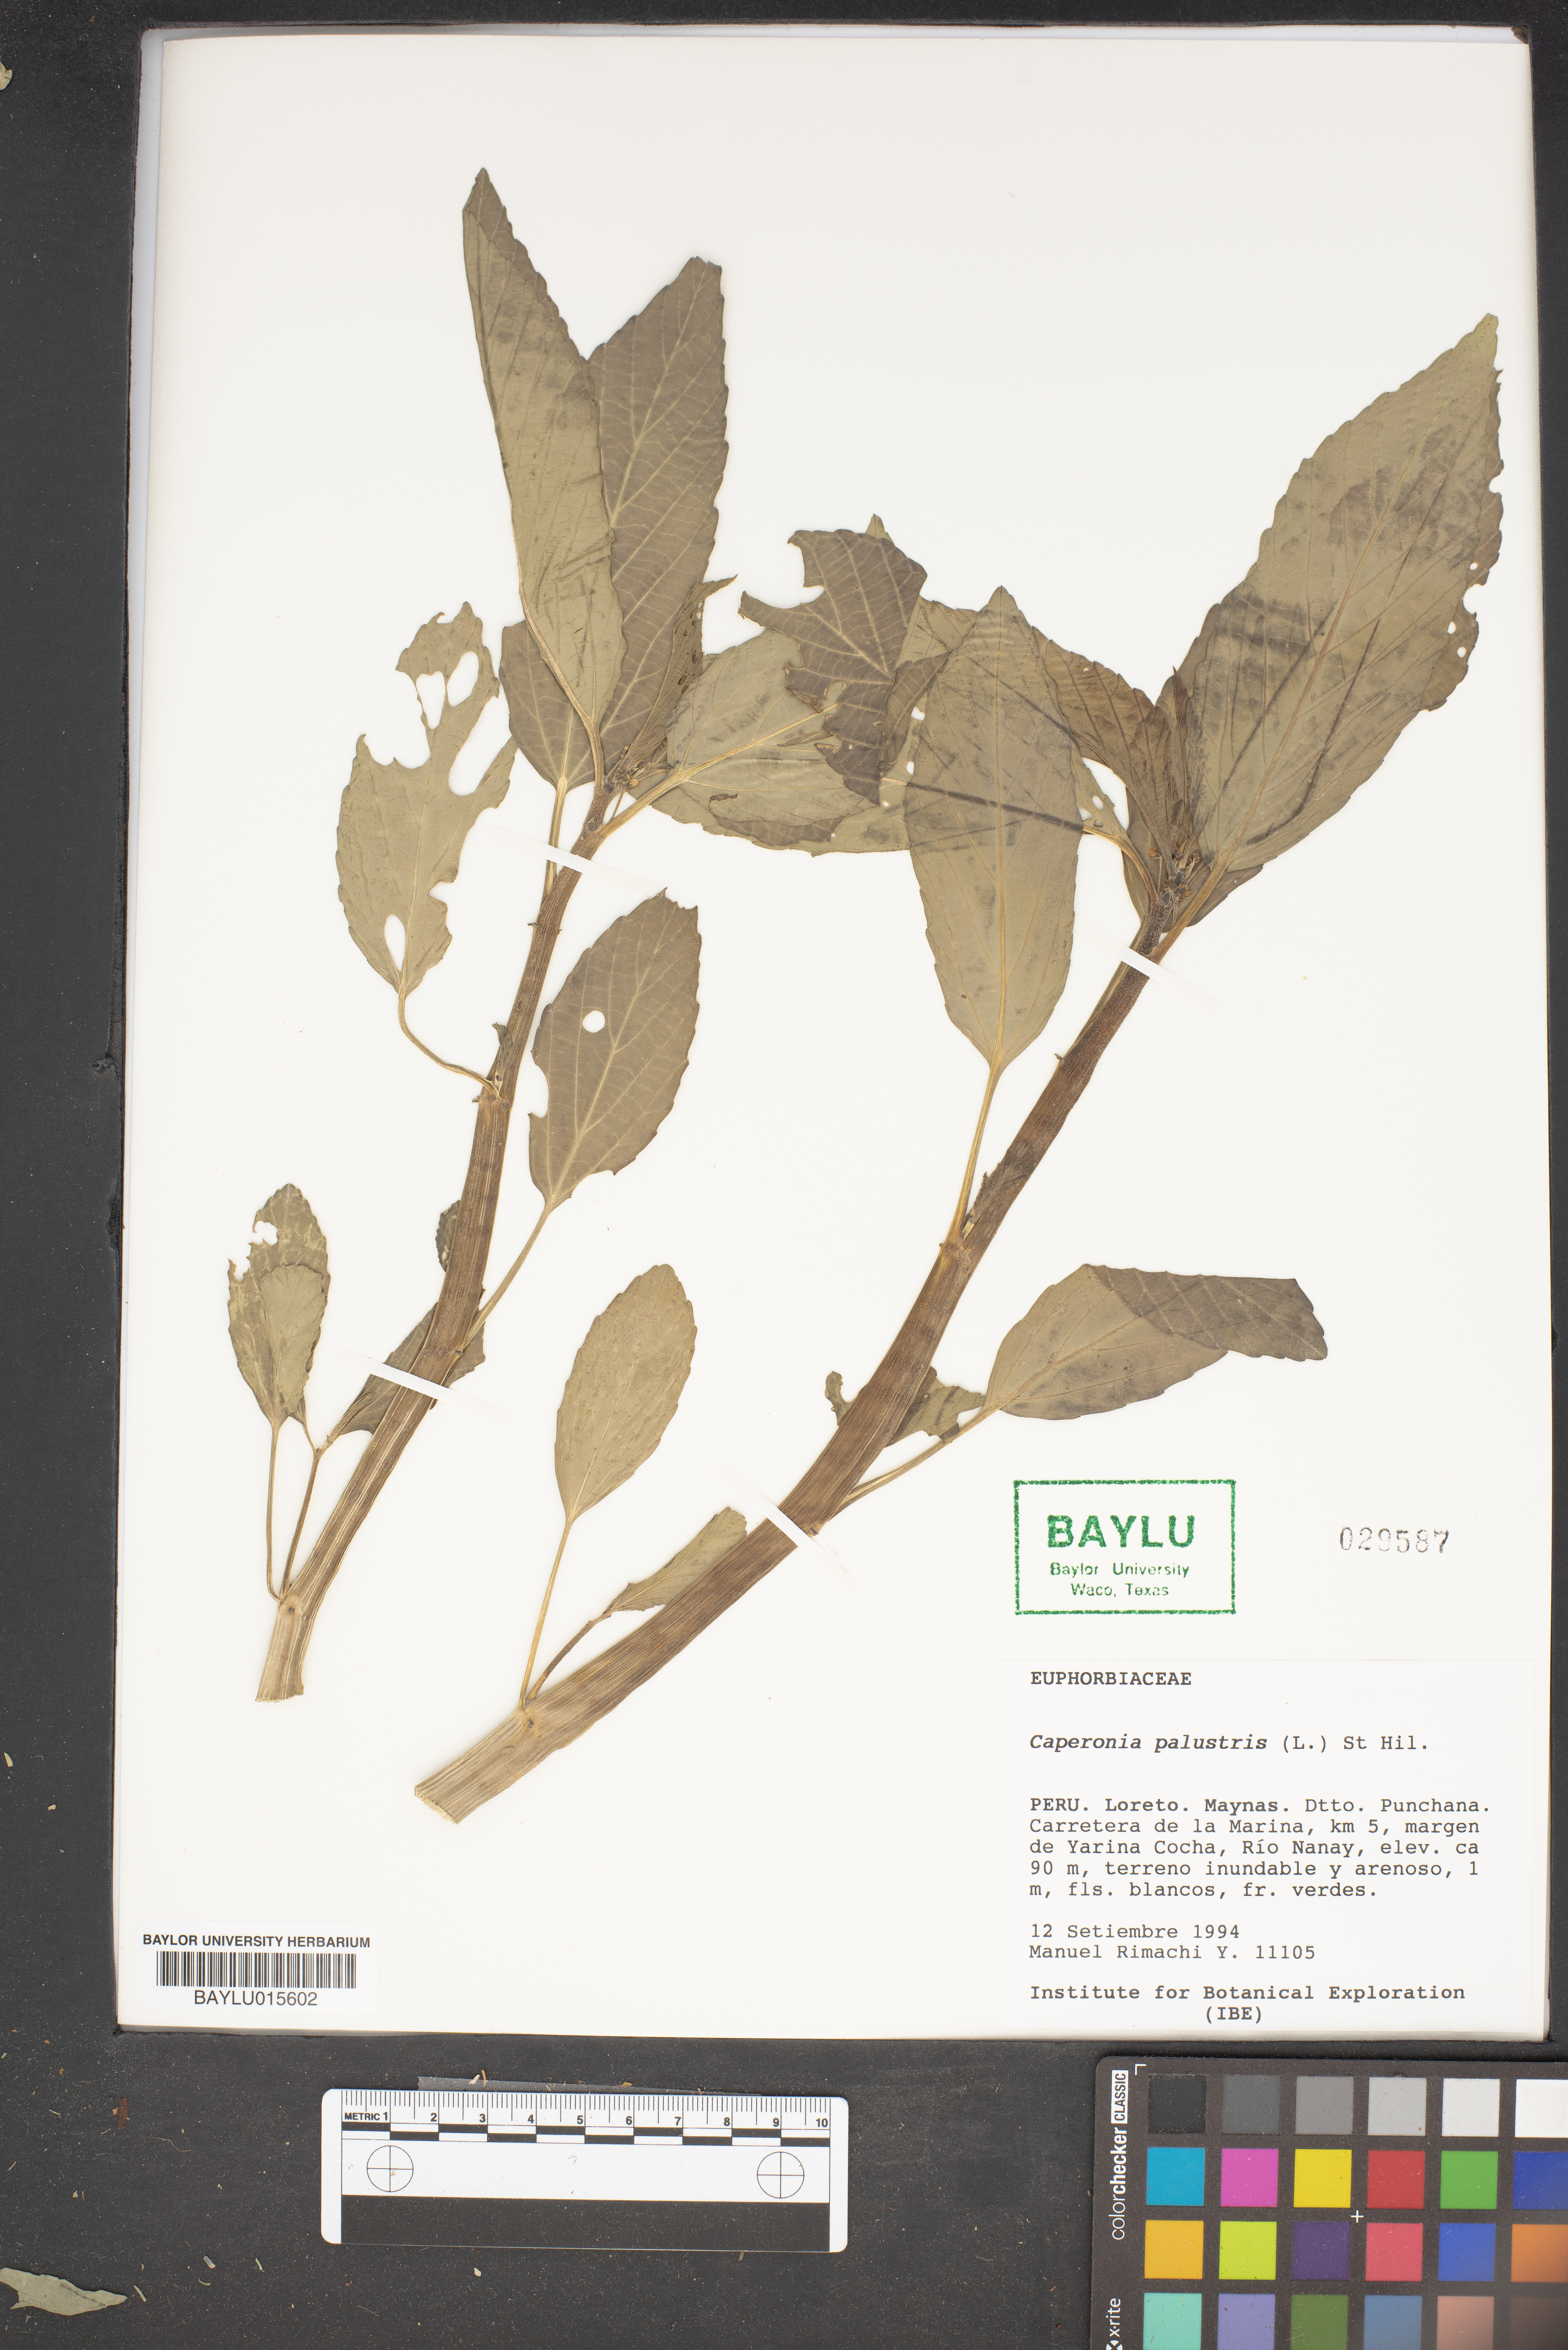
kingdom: Plantae
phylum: Tracheophyta
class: Magnoliopsida
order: Malpighiales
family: Euphorbiaceae
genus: Caperonia
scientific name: Caperonia palustris
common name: Sacatrapo
